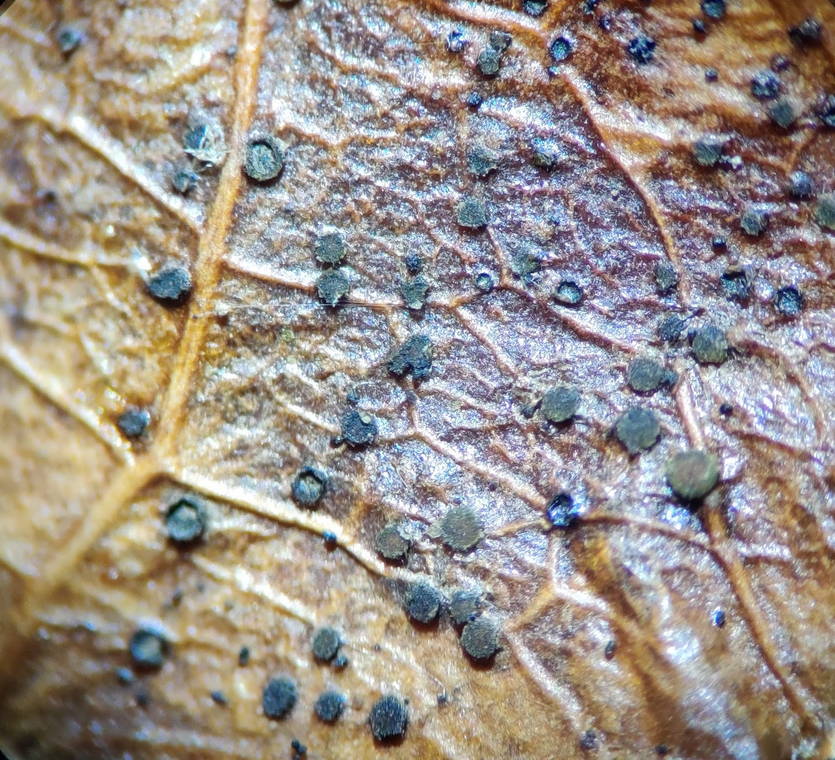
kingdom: Fungi
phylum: Ascomycota
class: Leotiomycetes
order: Helotiales
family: Cenangiaceae
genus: Trochila
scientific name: Trochila craterium
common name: vedbend-lågskive
